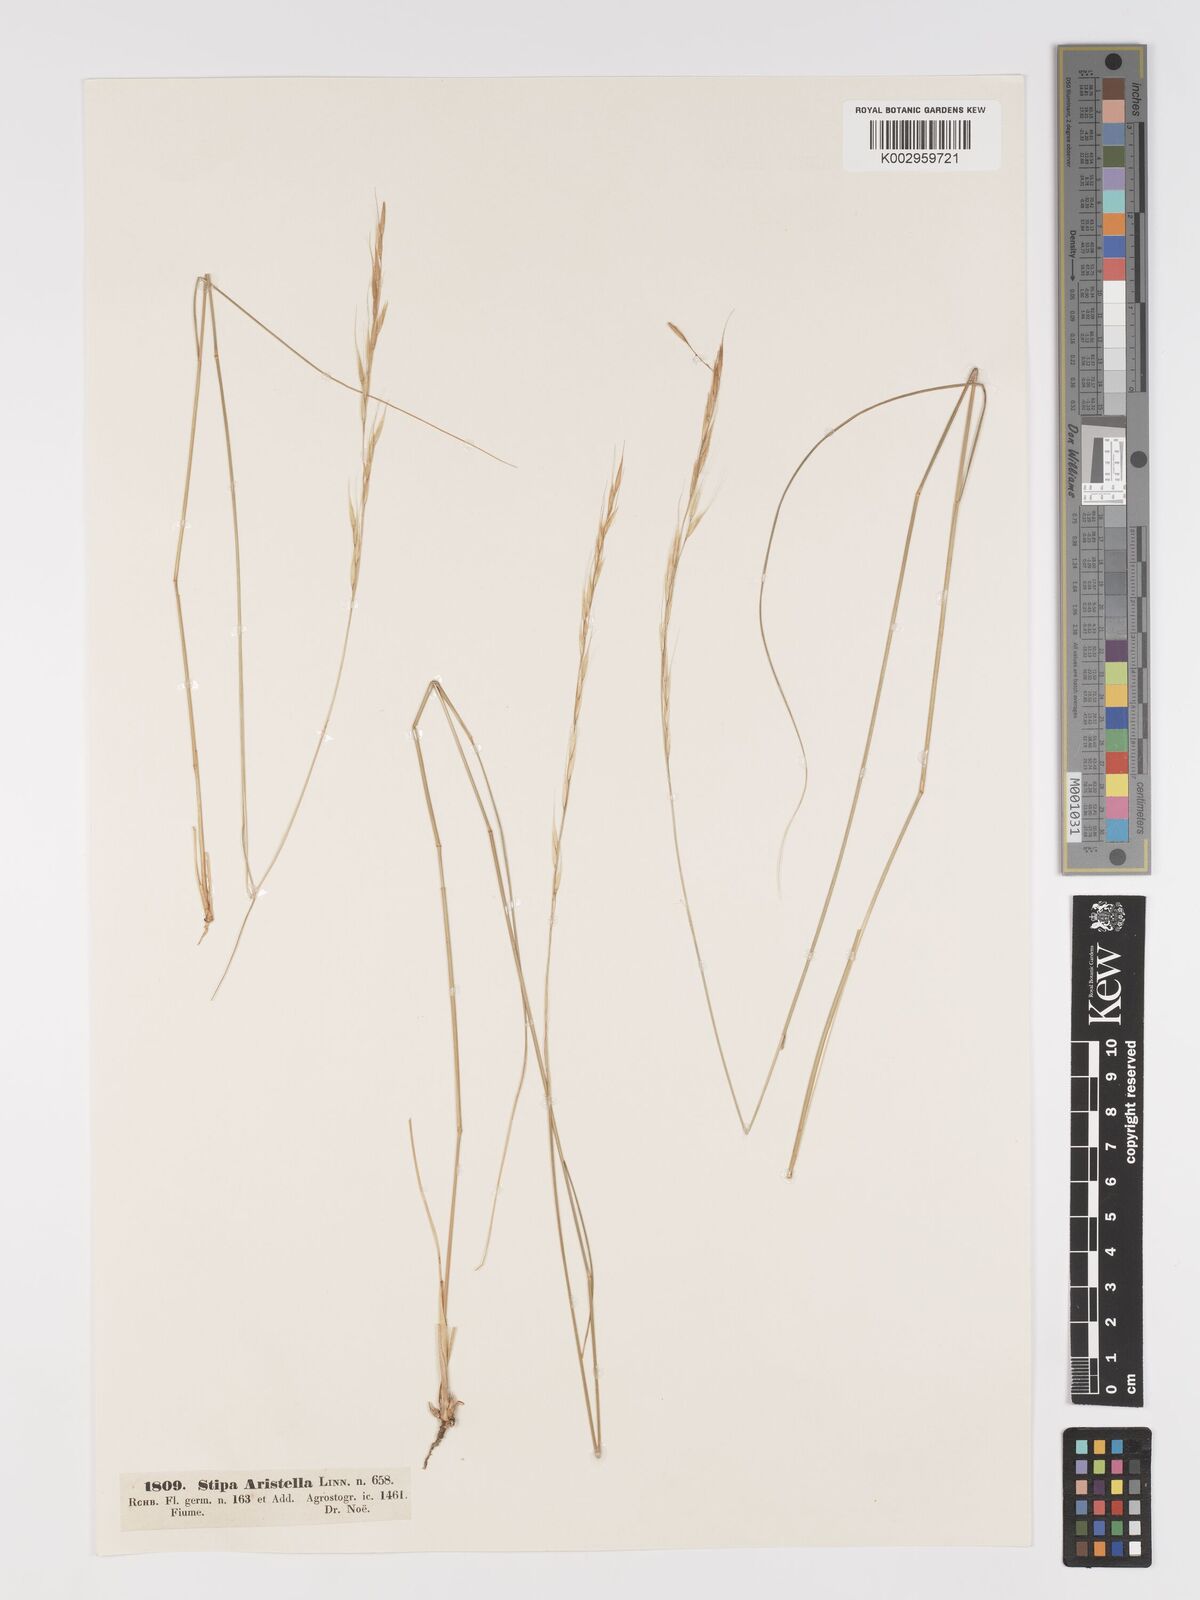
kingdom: Plantae
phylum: Tracheophyta
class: Liliopsida
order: Poales
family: Poaceae
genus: Achnatherum
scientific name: Achnatherum bromoides
